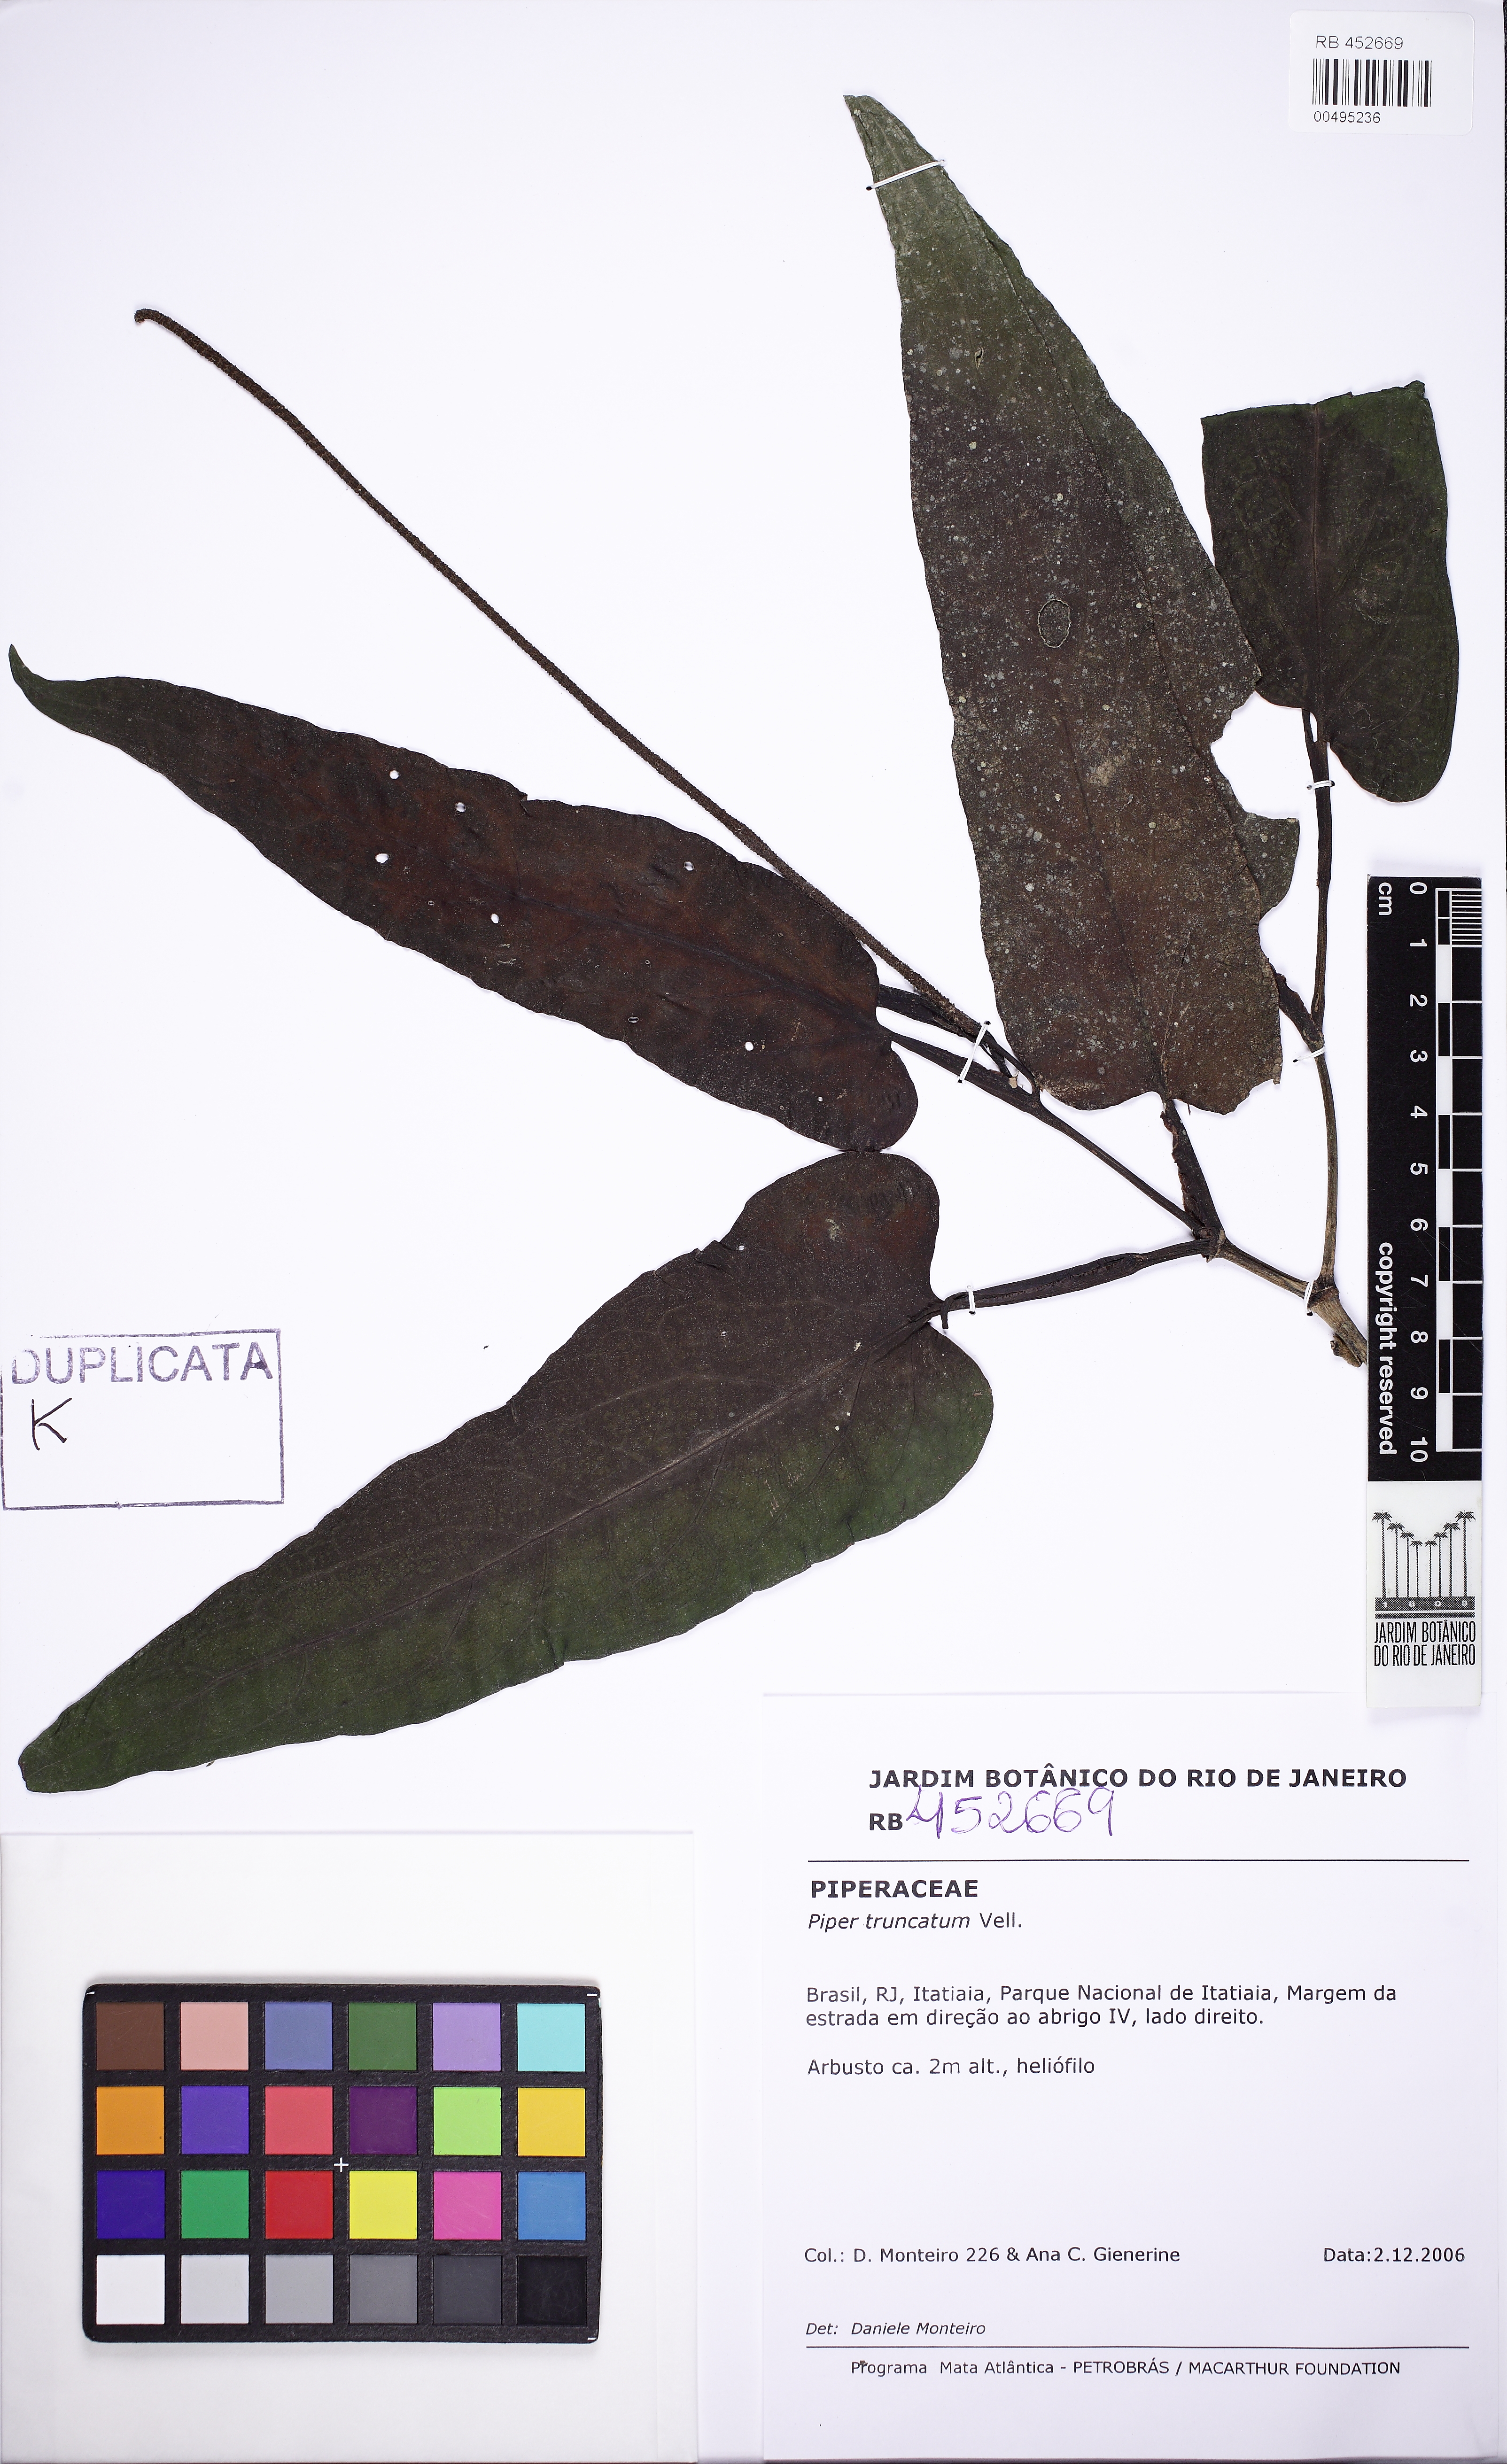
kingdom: Plantae
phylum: Tracheophyta
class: Magnoliopsida
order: Piperales
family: Piperaceae
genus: Piper
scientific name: Piper truncatum
